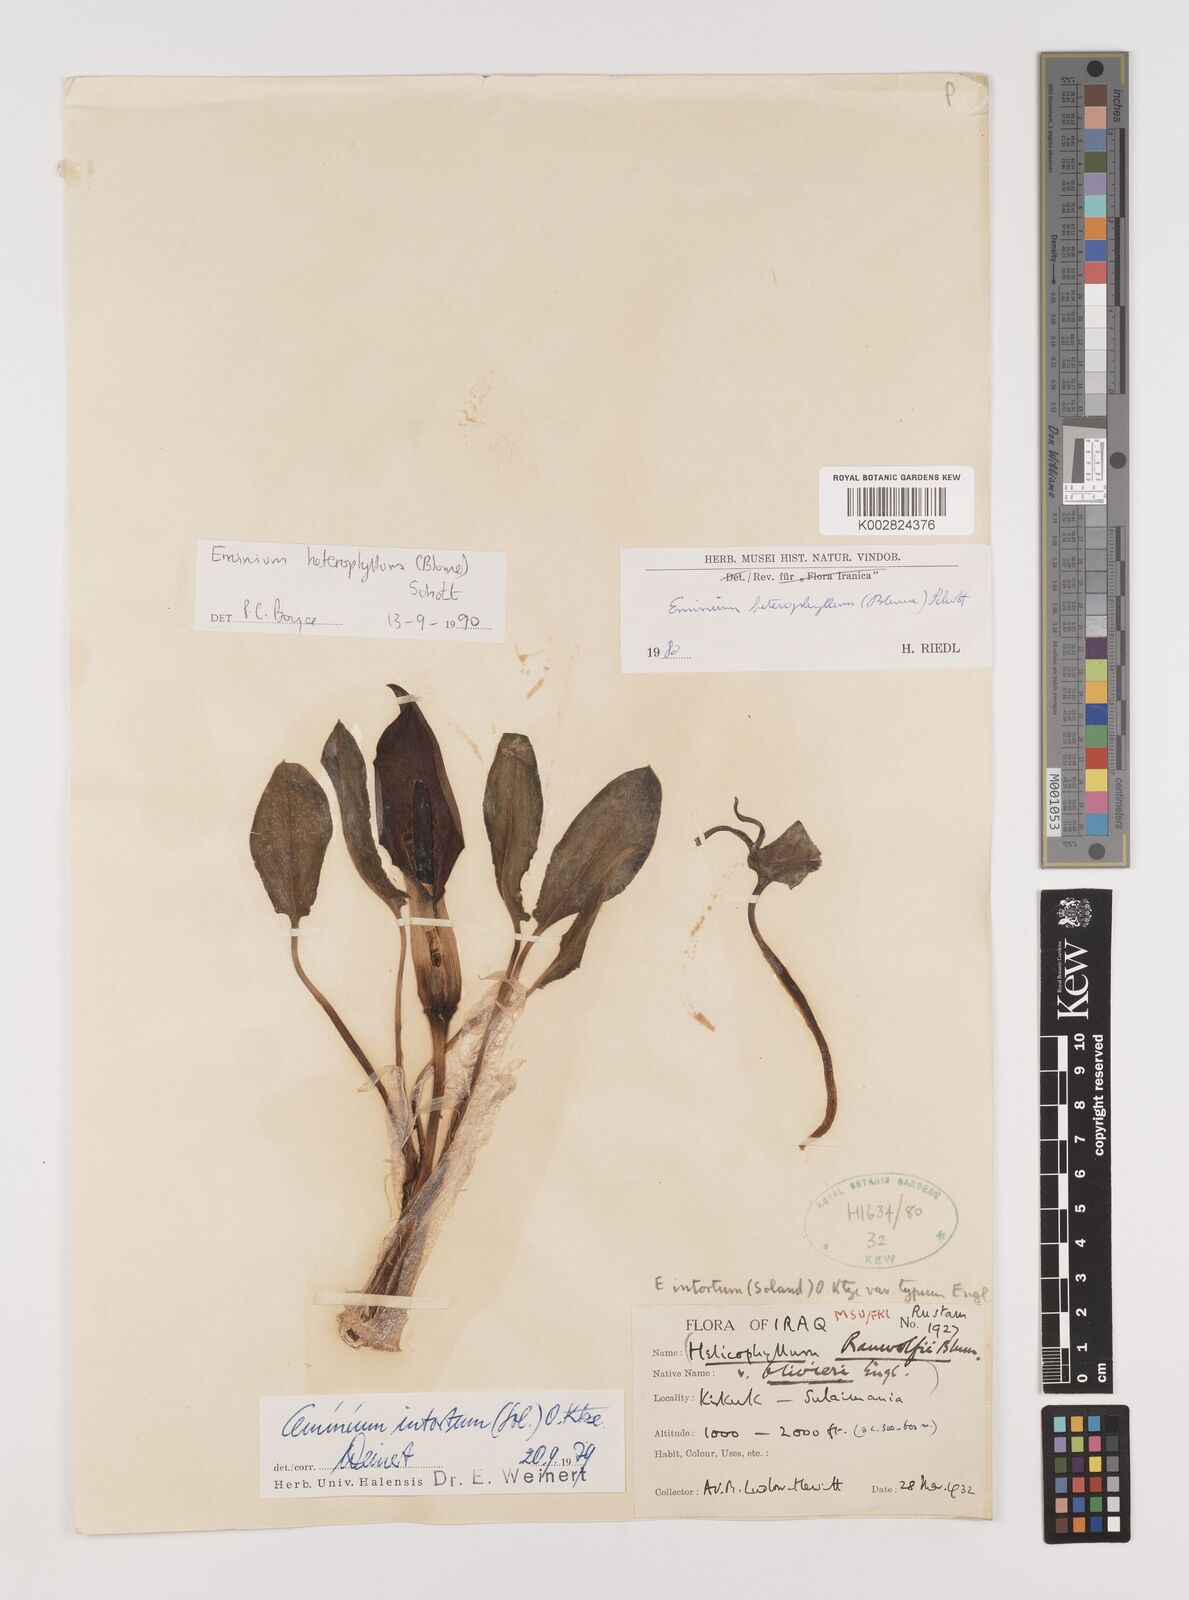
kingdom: Plantae
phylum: Tracheophyta
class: Liliopsida
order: Alismatales
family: Araceae
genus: Eminium
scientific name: Eminium rauwolffii
